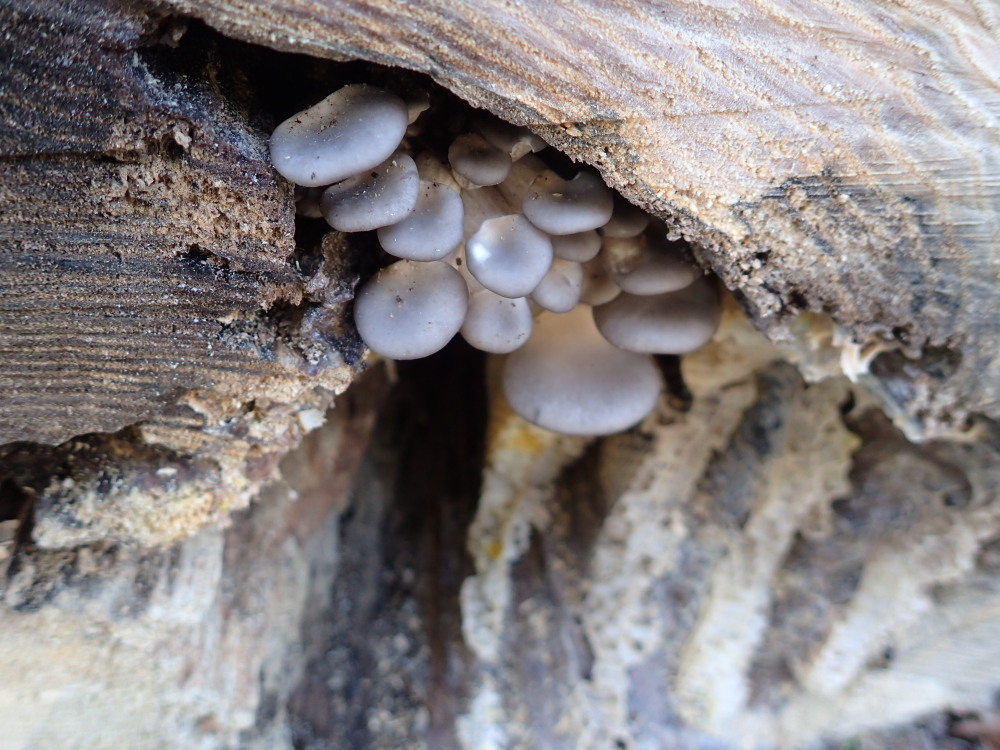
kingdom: Fungi
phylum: Basidiomycota
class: Agaricomycetes
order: Agaricales
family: Pleurotaceae
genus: Pleurotus
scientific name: Pleurotus ostreatus
